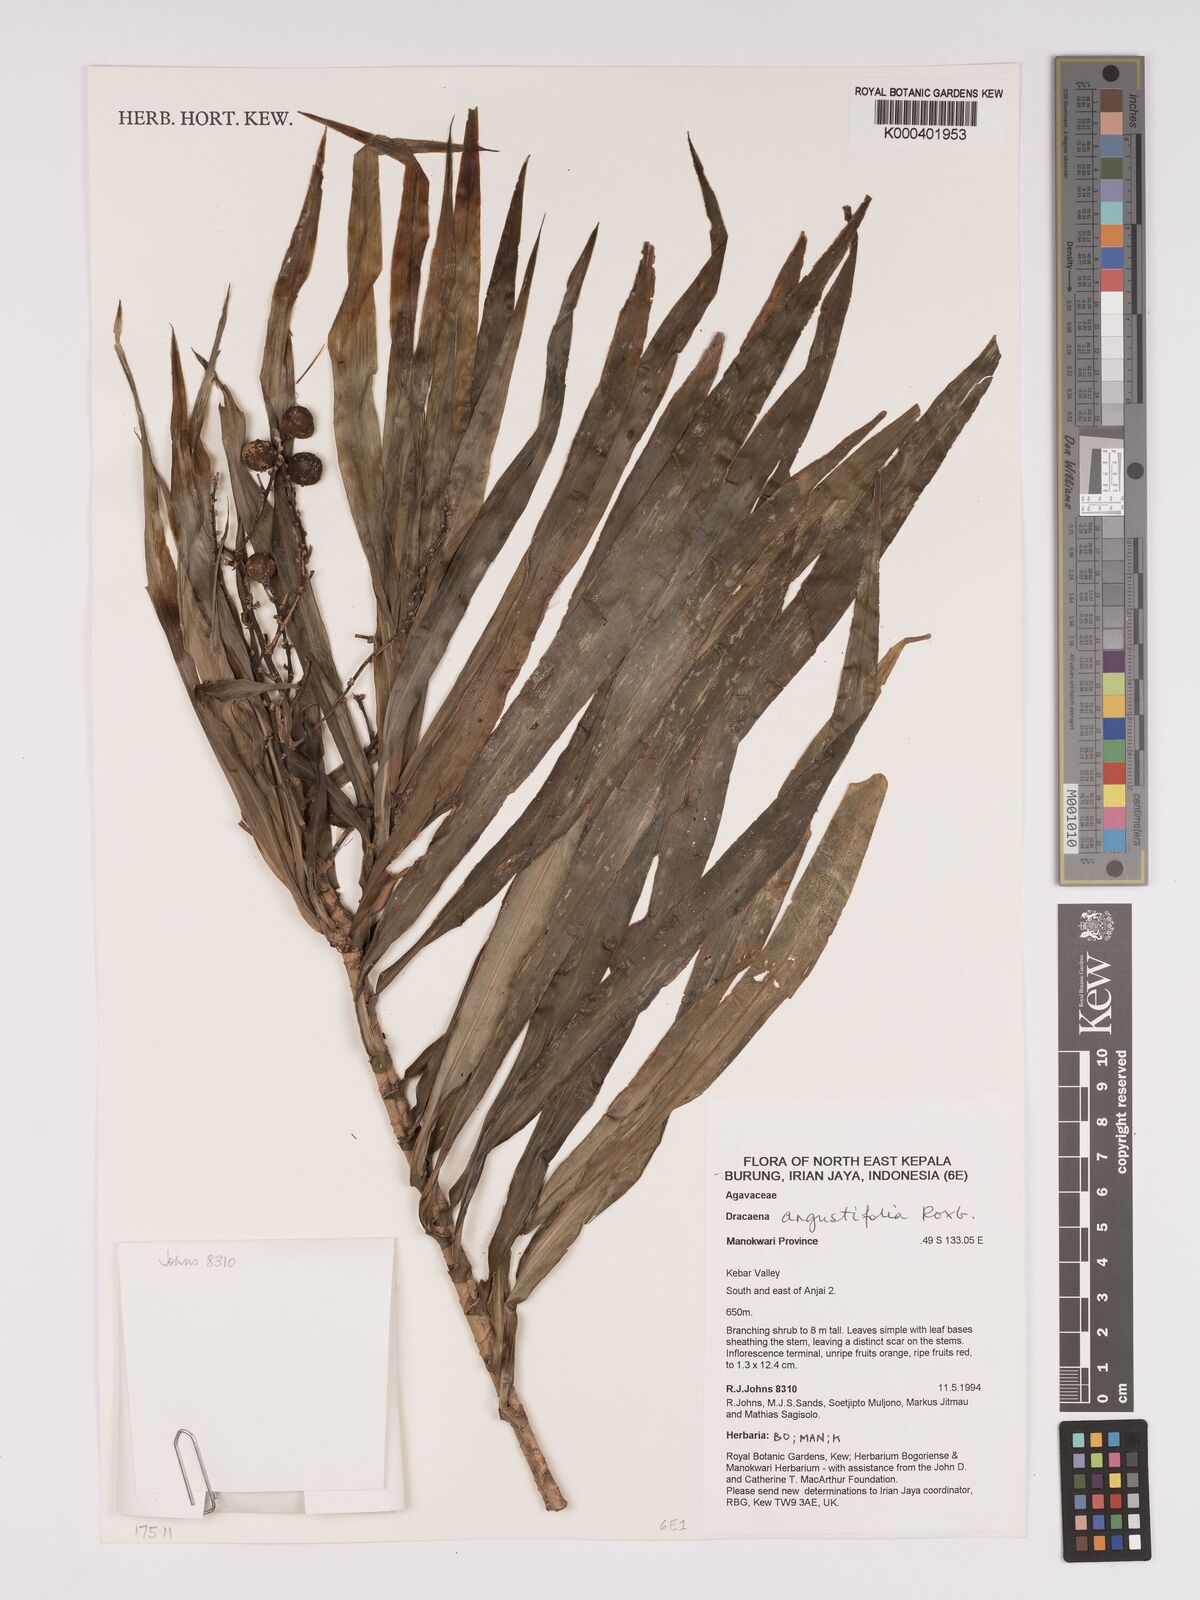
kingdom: Plantae
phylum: Tracheophyta
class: Liliopsida
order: Asparagales
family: Asparagaceae
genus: Dracaena
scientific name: Dracaena angustifolia
